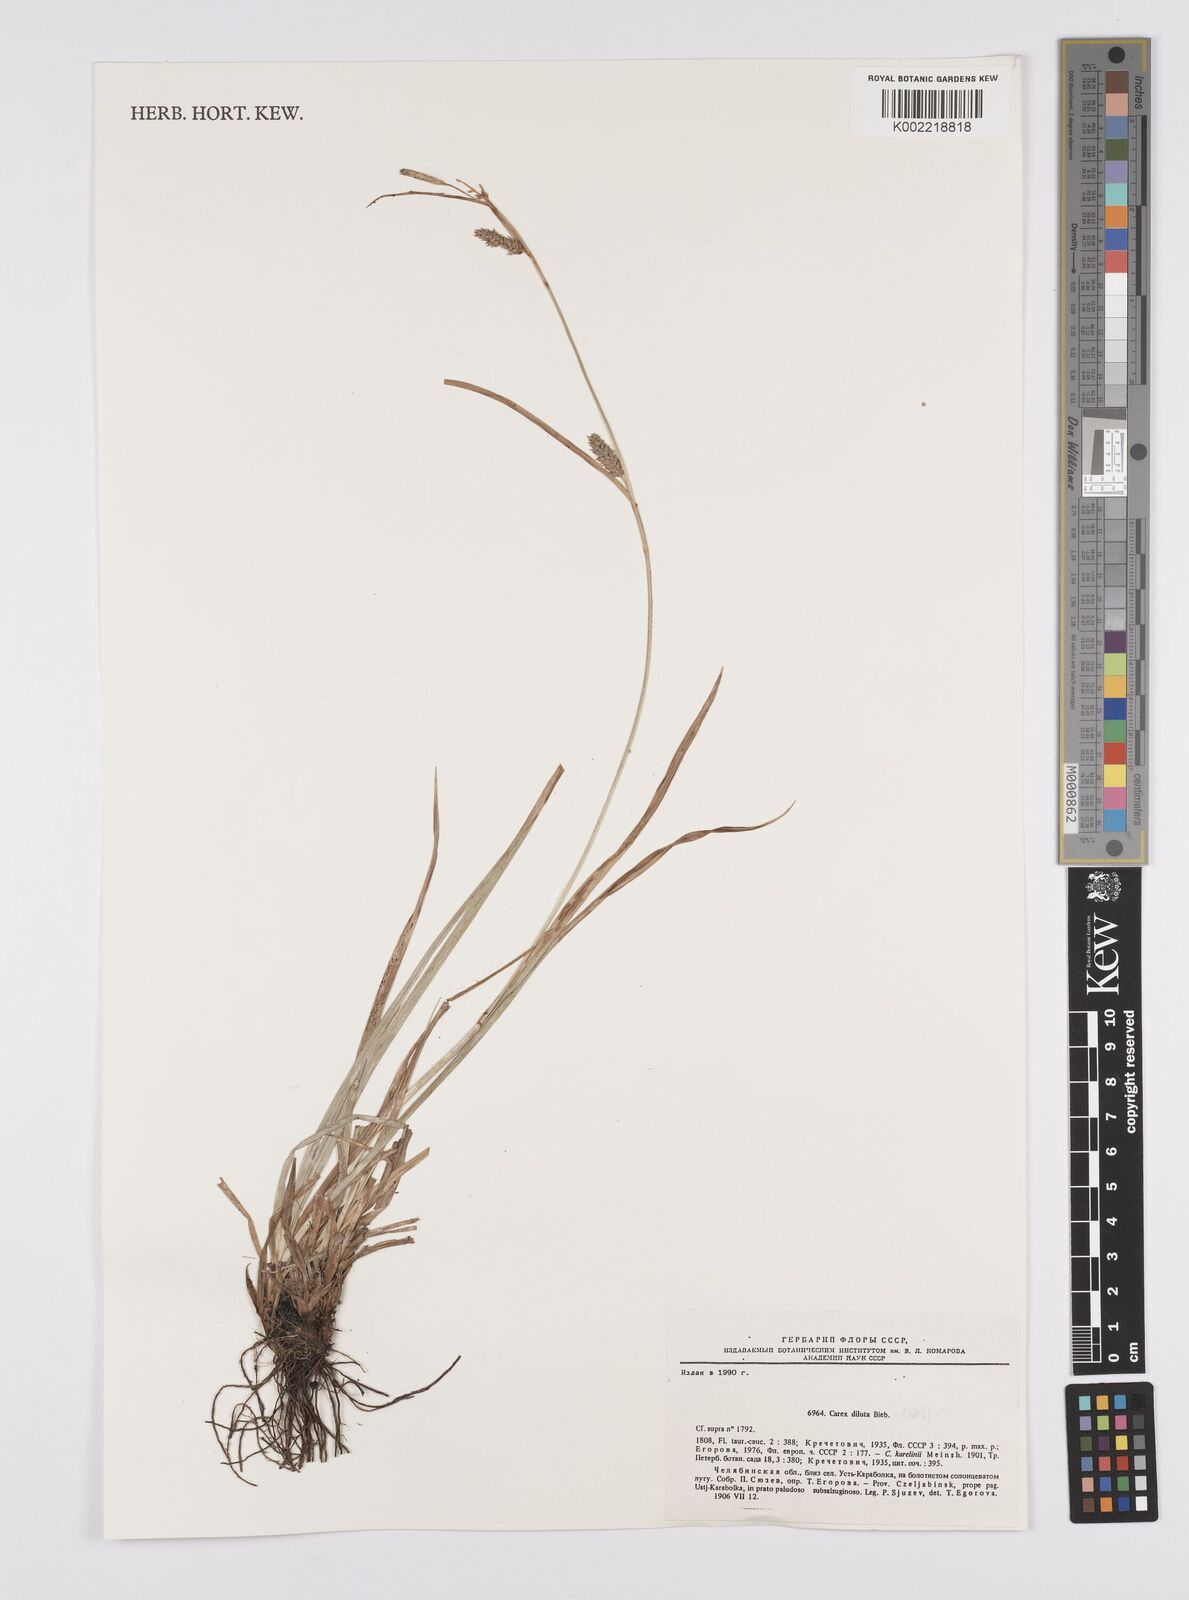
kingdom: Plantae
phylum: Tracheophyta
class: Liliopsida
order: Poales
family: Cyperaceae
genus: Carex
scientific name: Carex diluta
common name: Sedge
